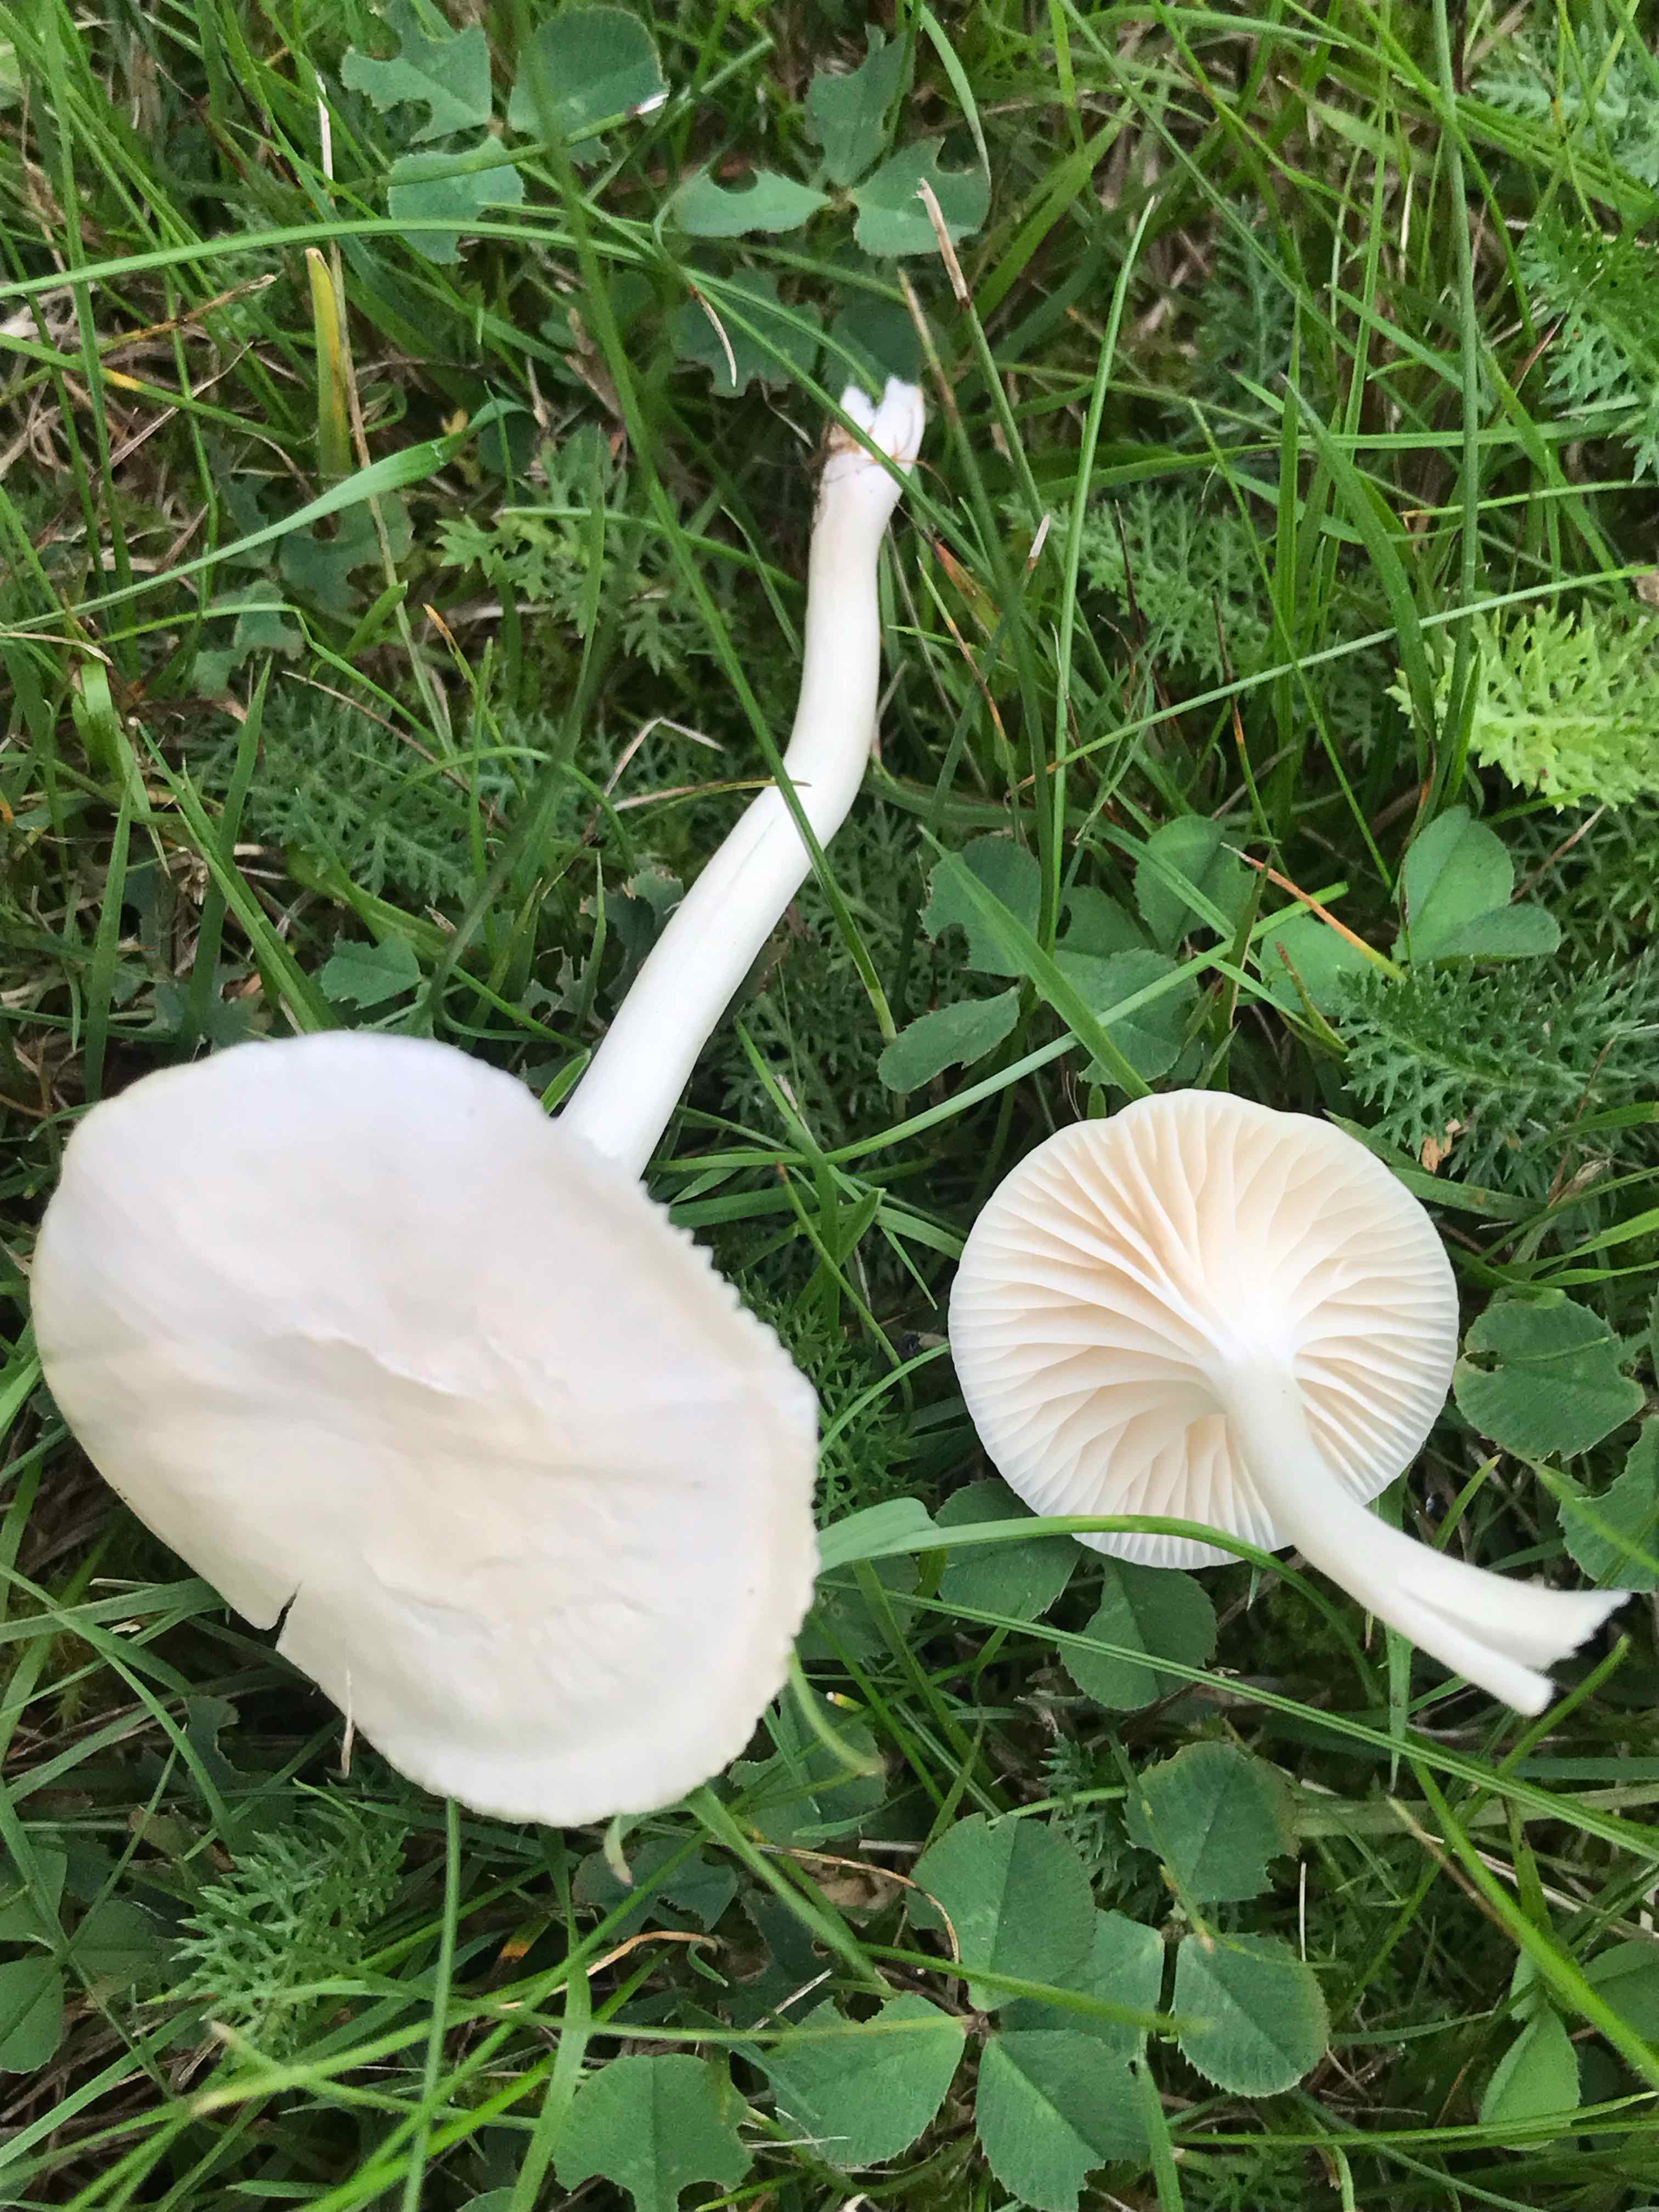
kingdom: Fungi
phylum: Basidiomycota
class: Agaricomycetes
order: Agaricales
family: Hygrophoraceae
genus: Cuphophyllus
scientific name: Cuphophyllus virgineus
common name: snehvid vokshat
